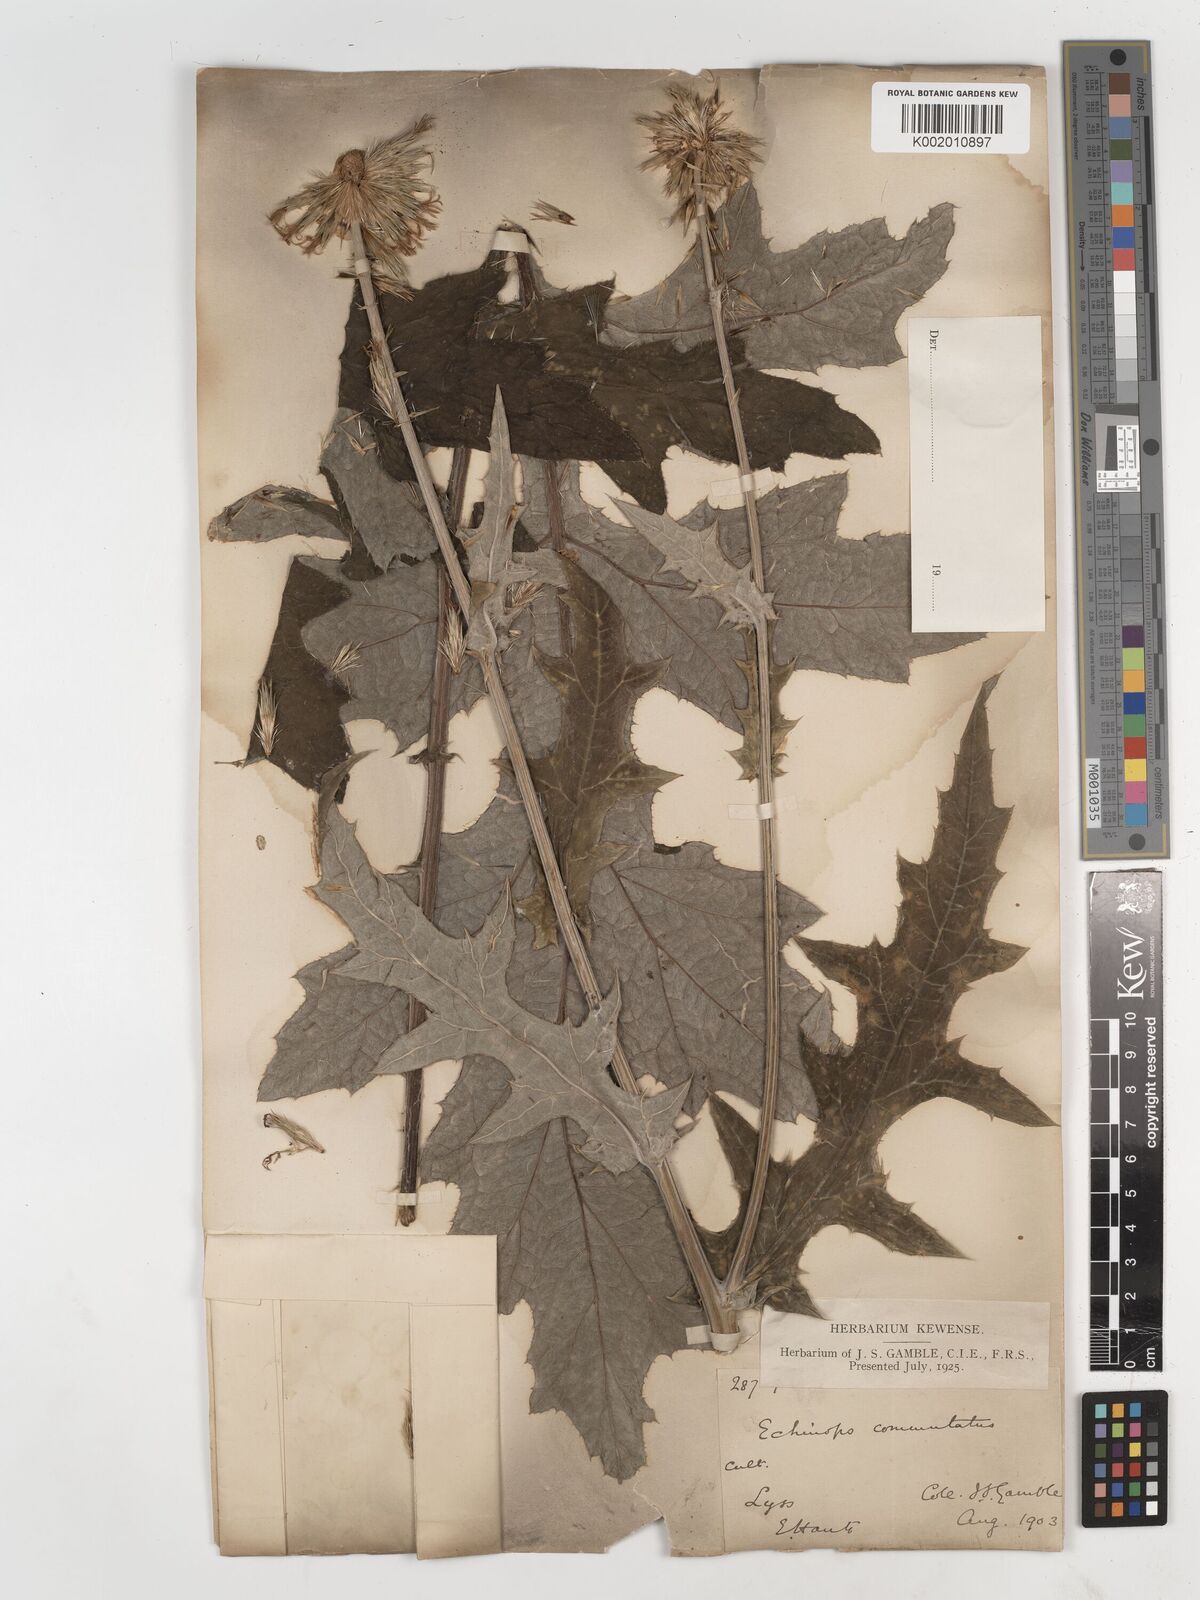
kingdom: Plantae
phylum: Tracheophyta
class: Magnoliopsida
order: Asterales
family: Asteraceae
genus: Echinops
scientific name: Echinops
